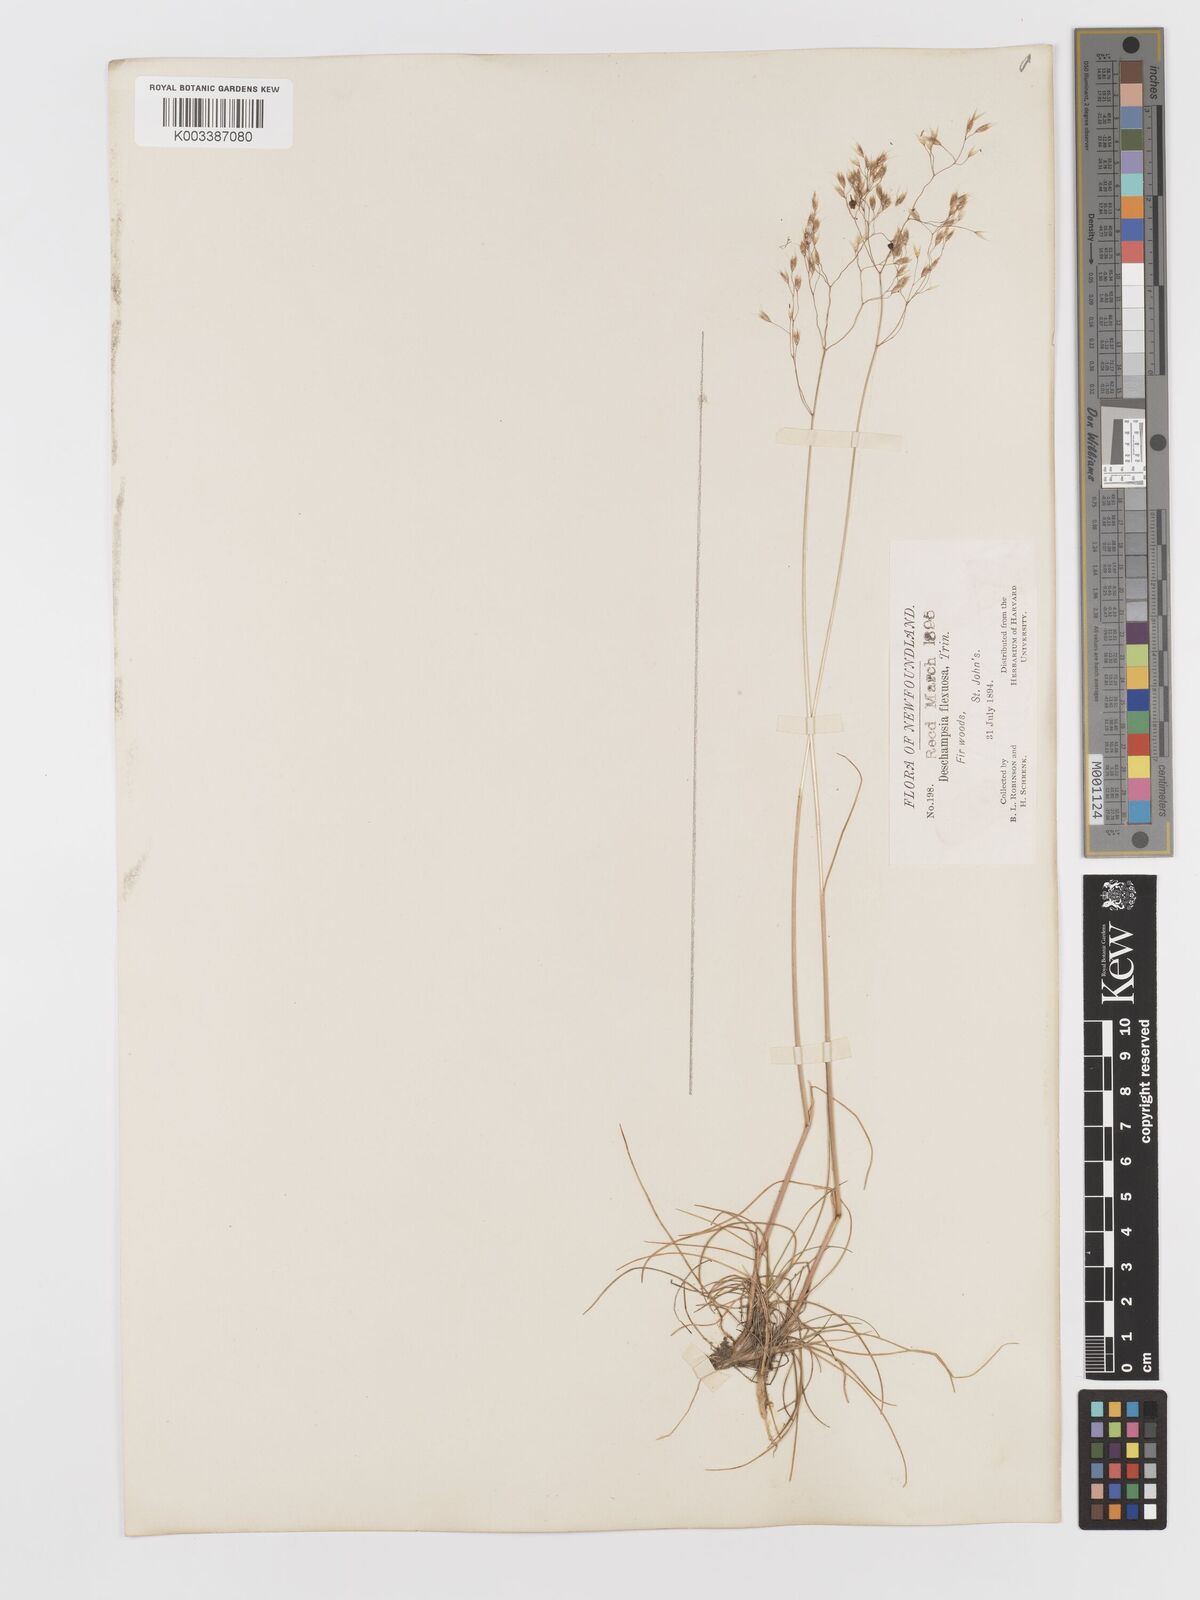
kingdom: Plantae
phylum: Tracheophyta
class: Liliopsida
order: Poales
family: Poaceae
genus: Avenella
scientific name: Avenella flexuosa
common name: Wavy hairgrass
